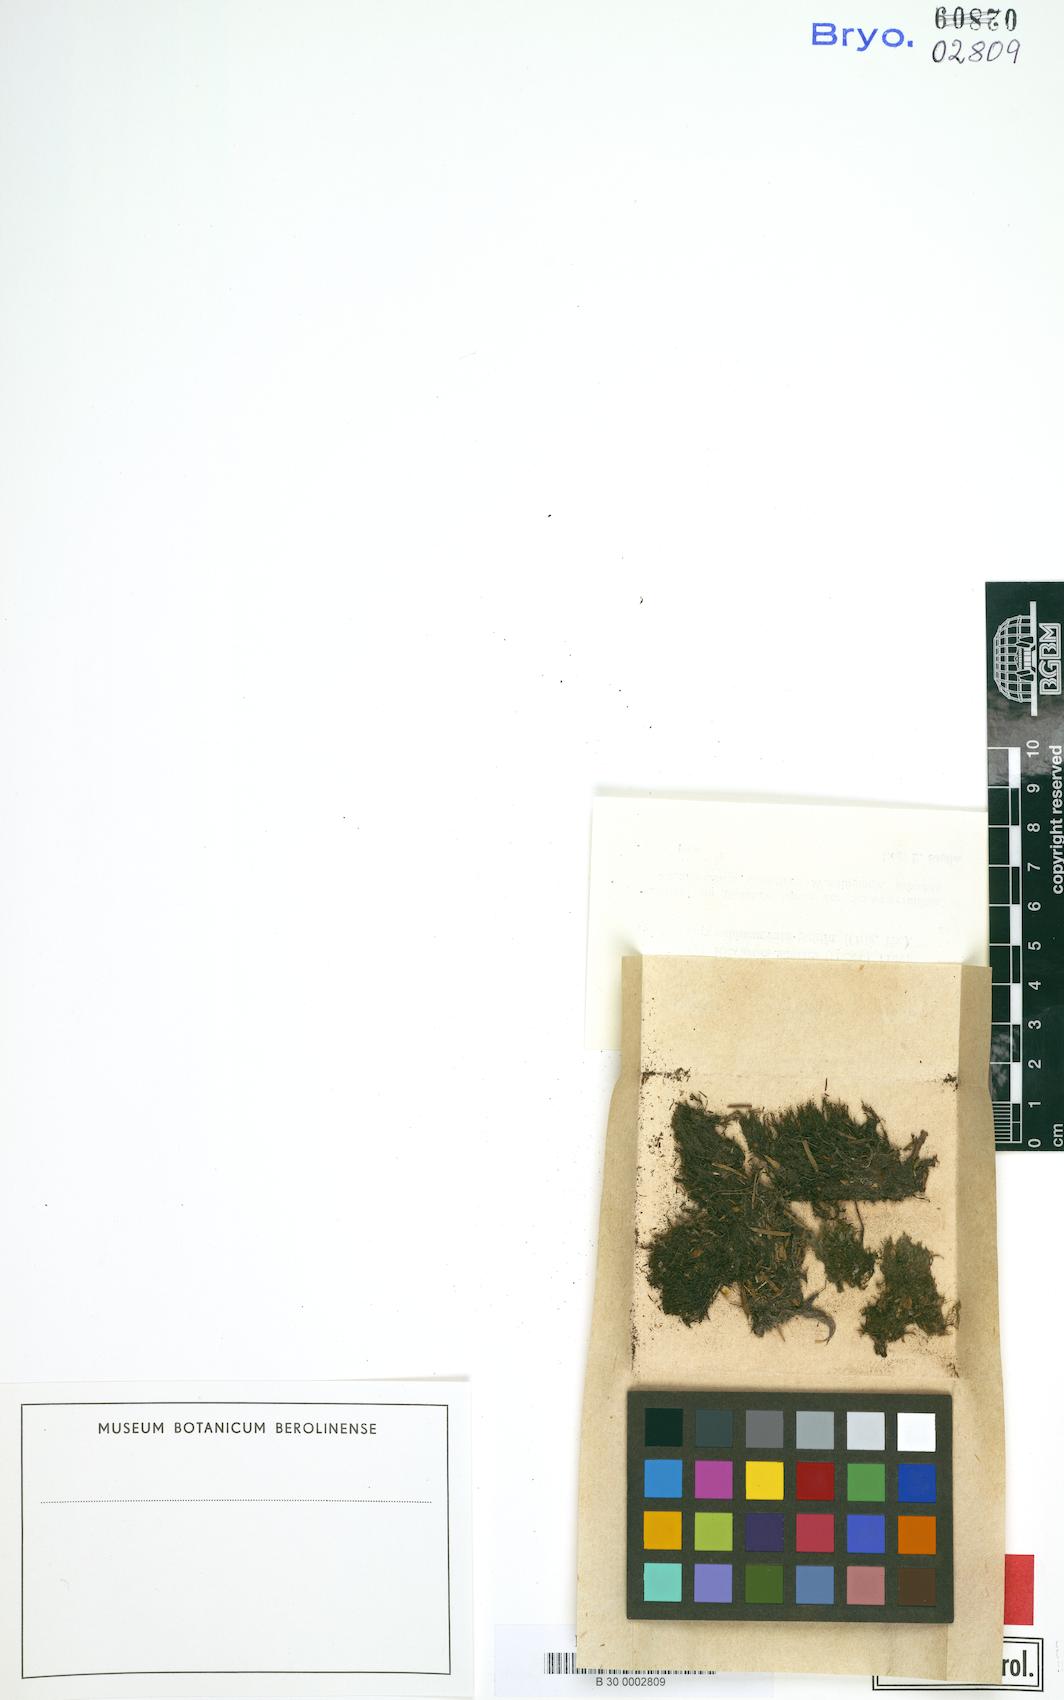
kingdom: Plantae
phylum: Marchantiophyta
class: Jungermanniopsida
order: Metzgeriales
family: Aneuraceae
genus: Riccardia
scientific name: Riccardia chamedryfolia
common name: Jagged germanderwort
